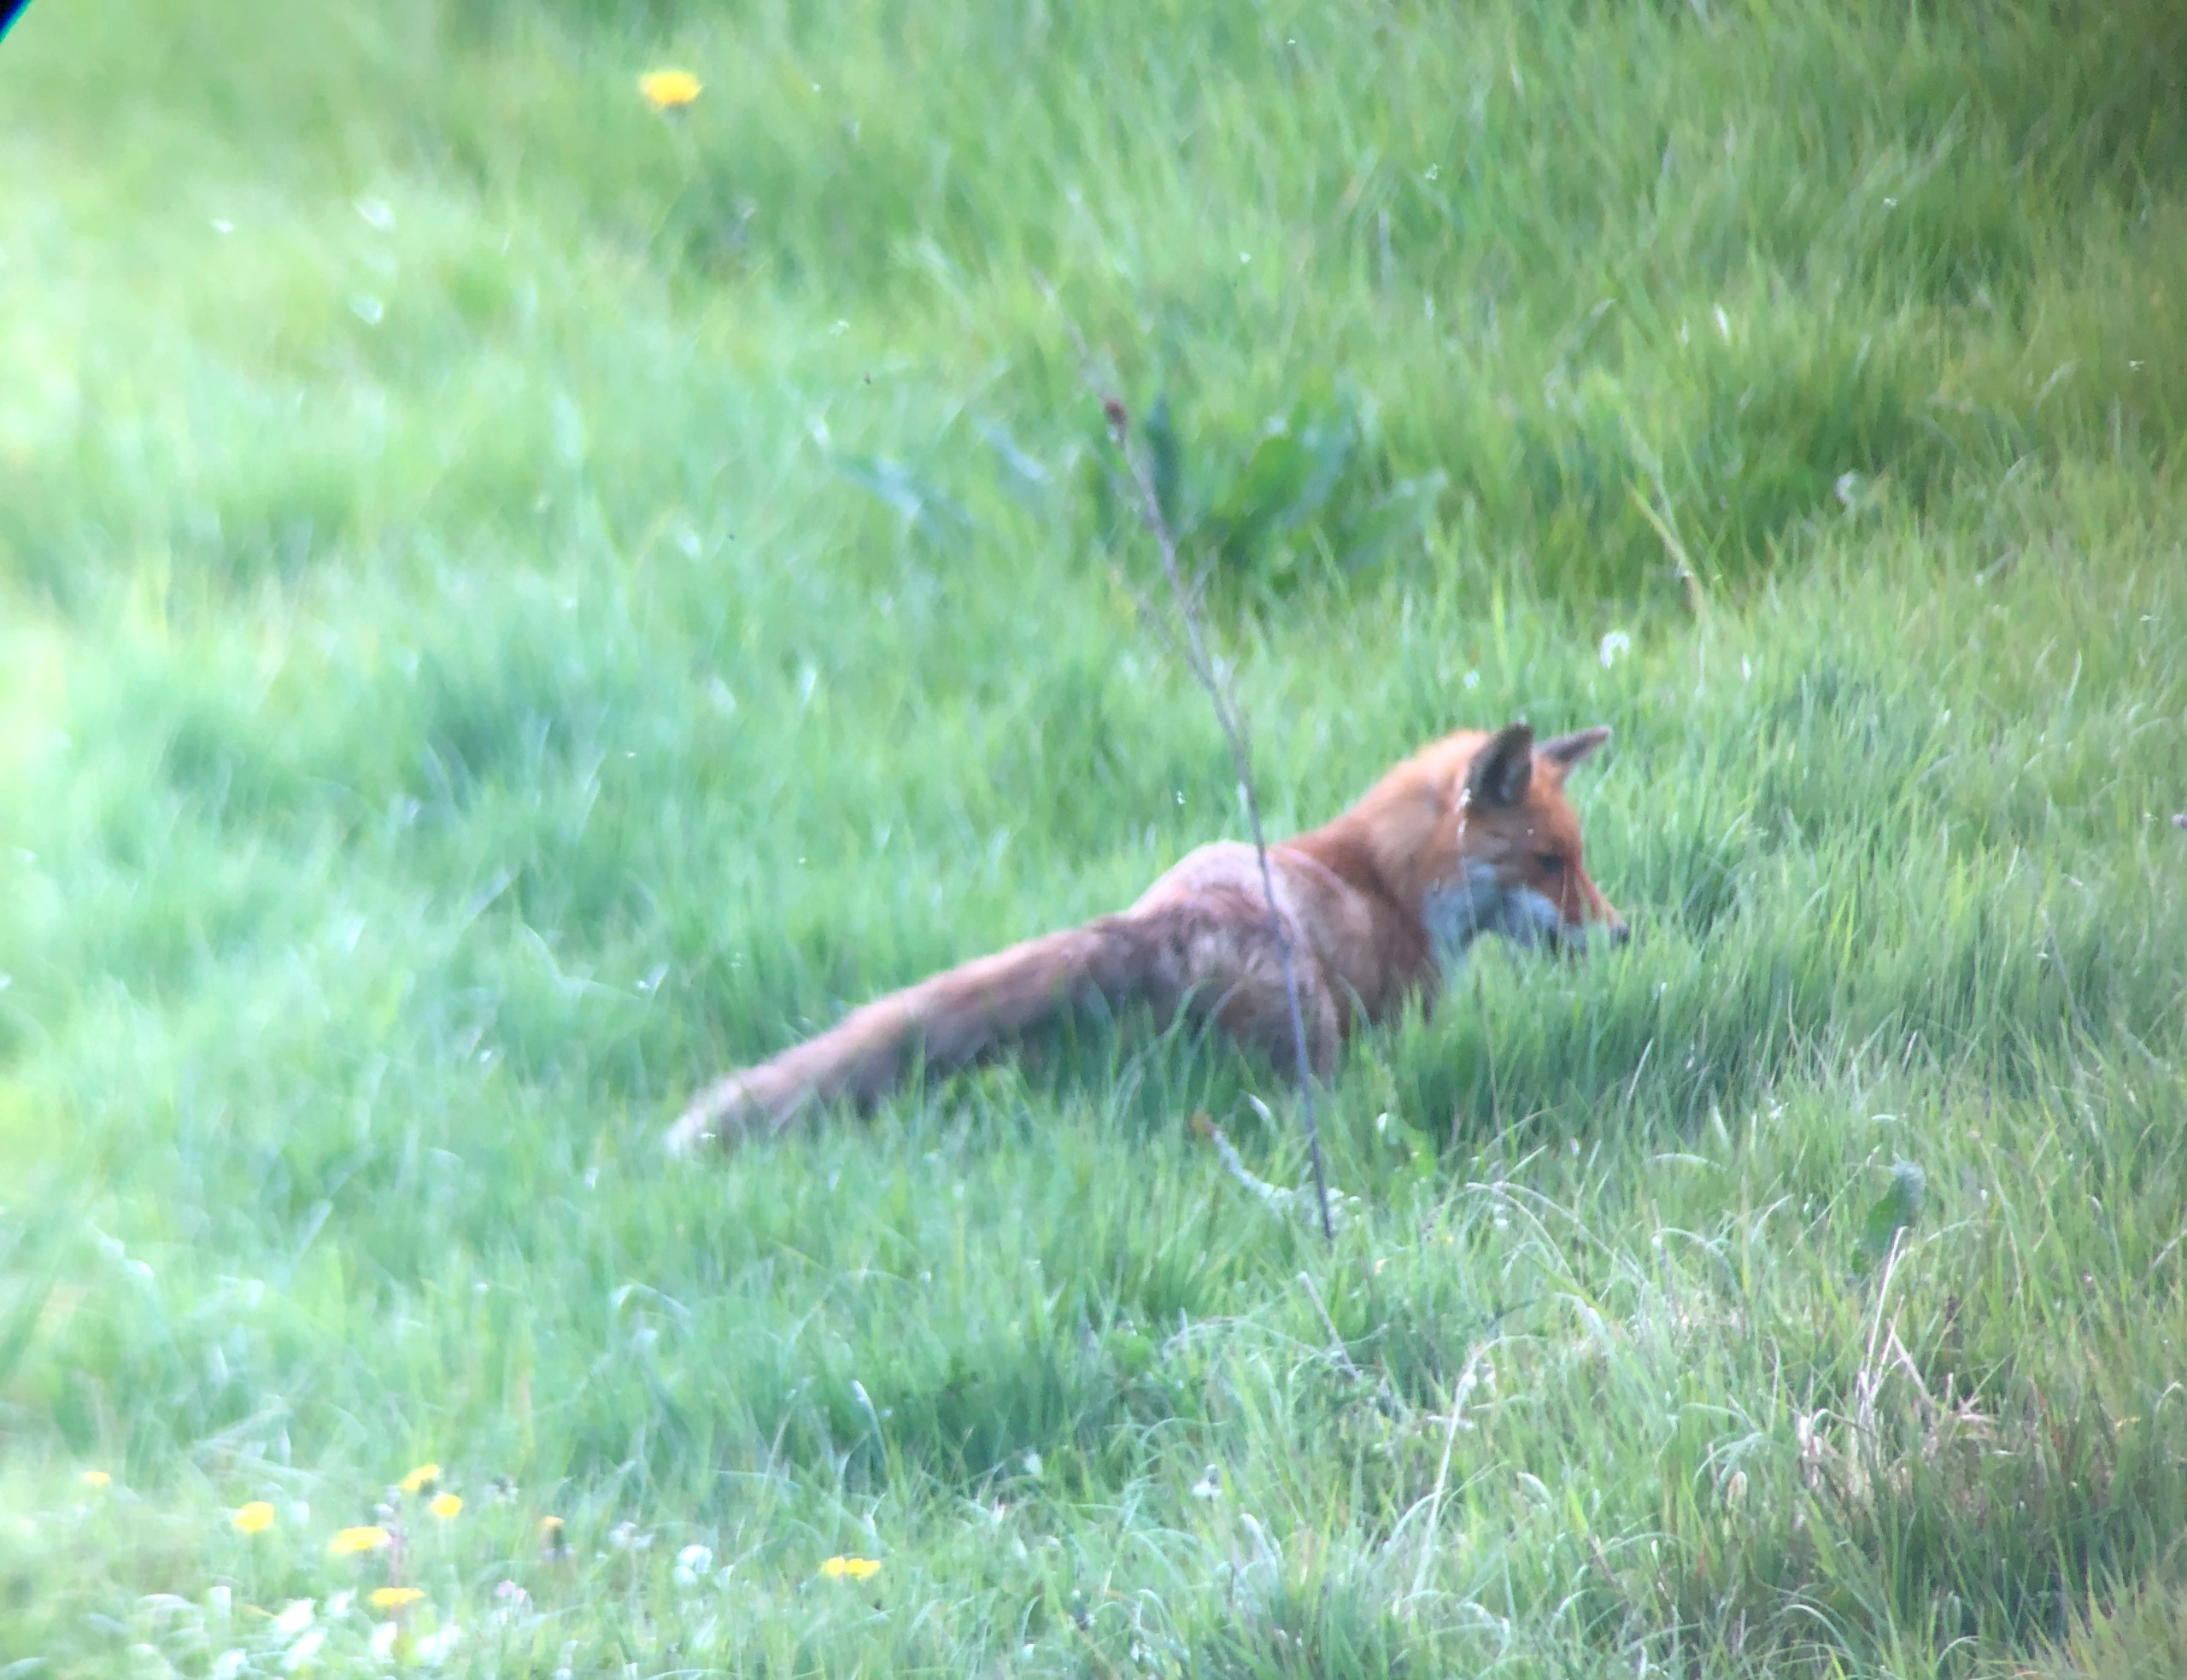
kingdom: Animalia
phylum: Chordata
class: Mammalia
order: Carnivora
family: Canidae
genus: Vulpes
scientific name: Vulpes vulpes
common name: Ræv
